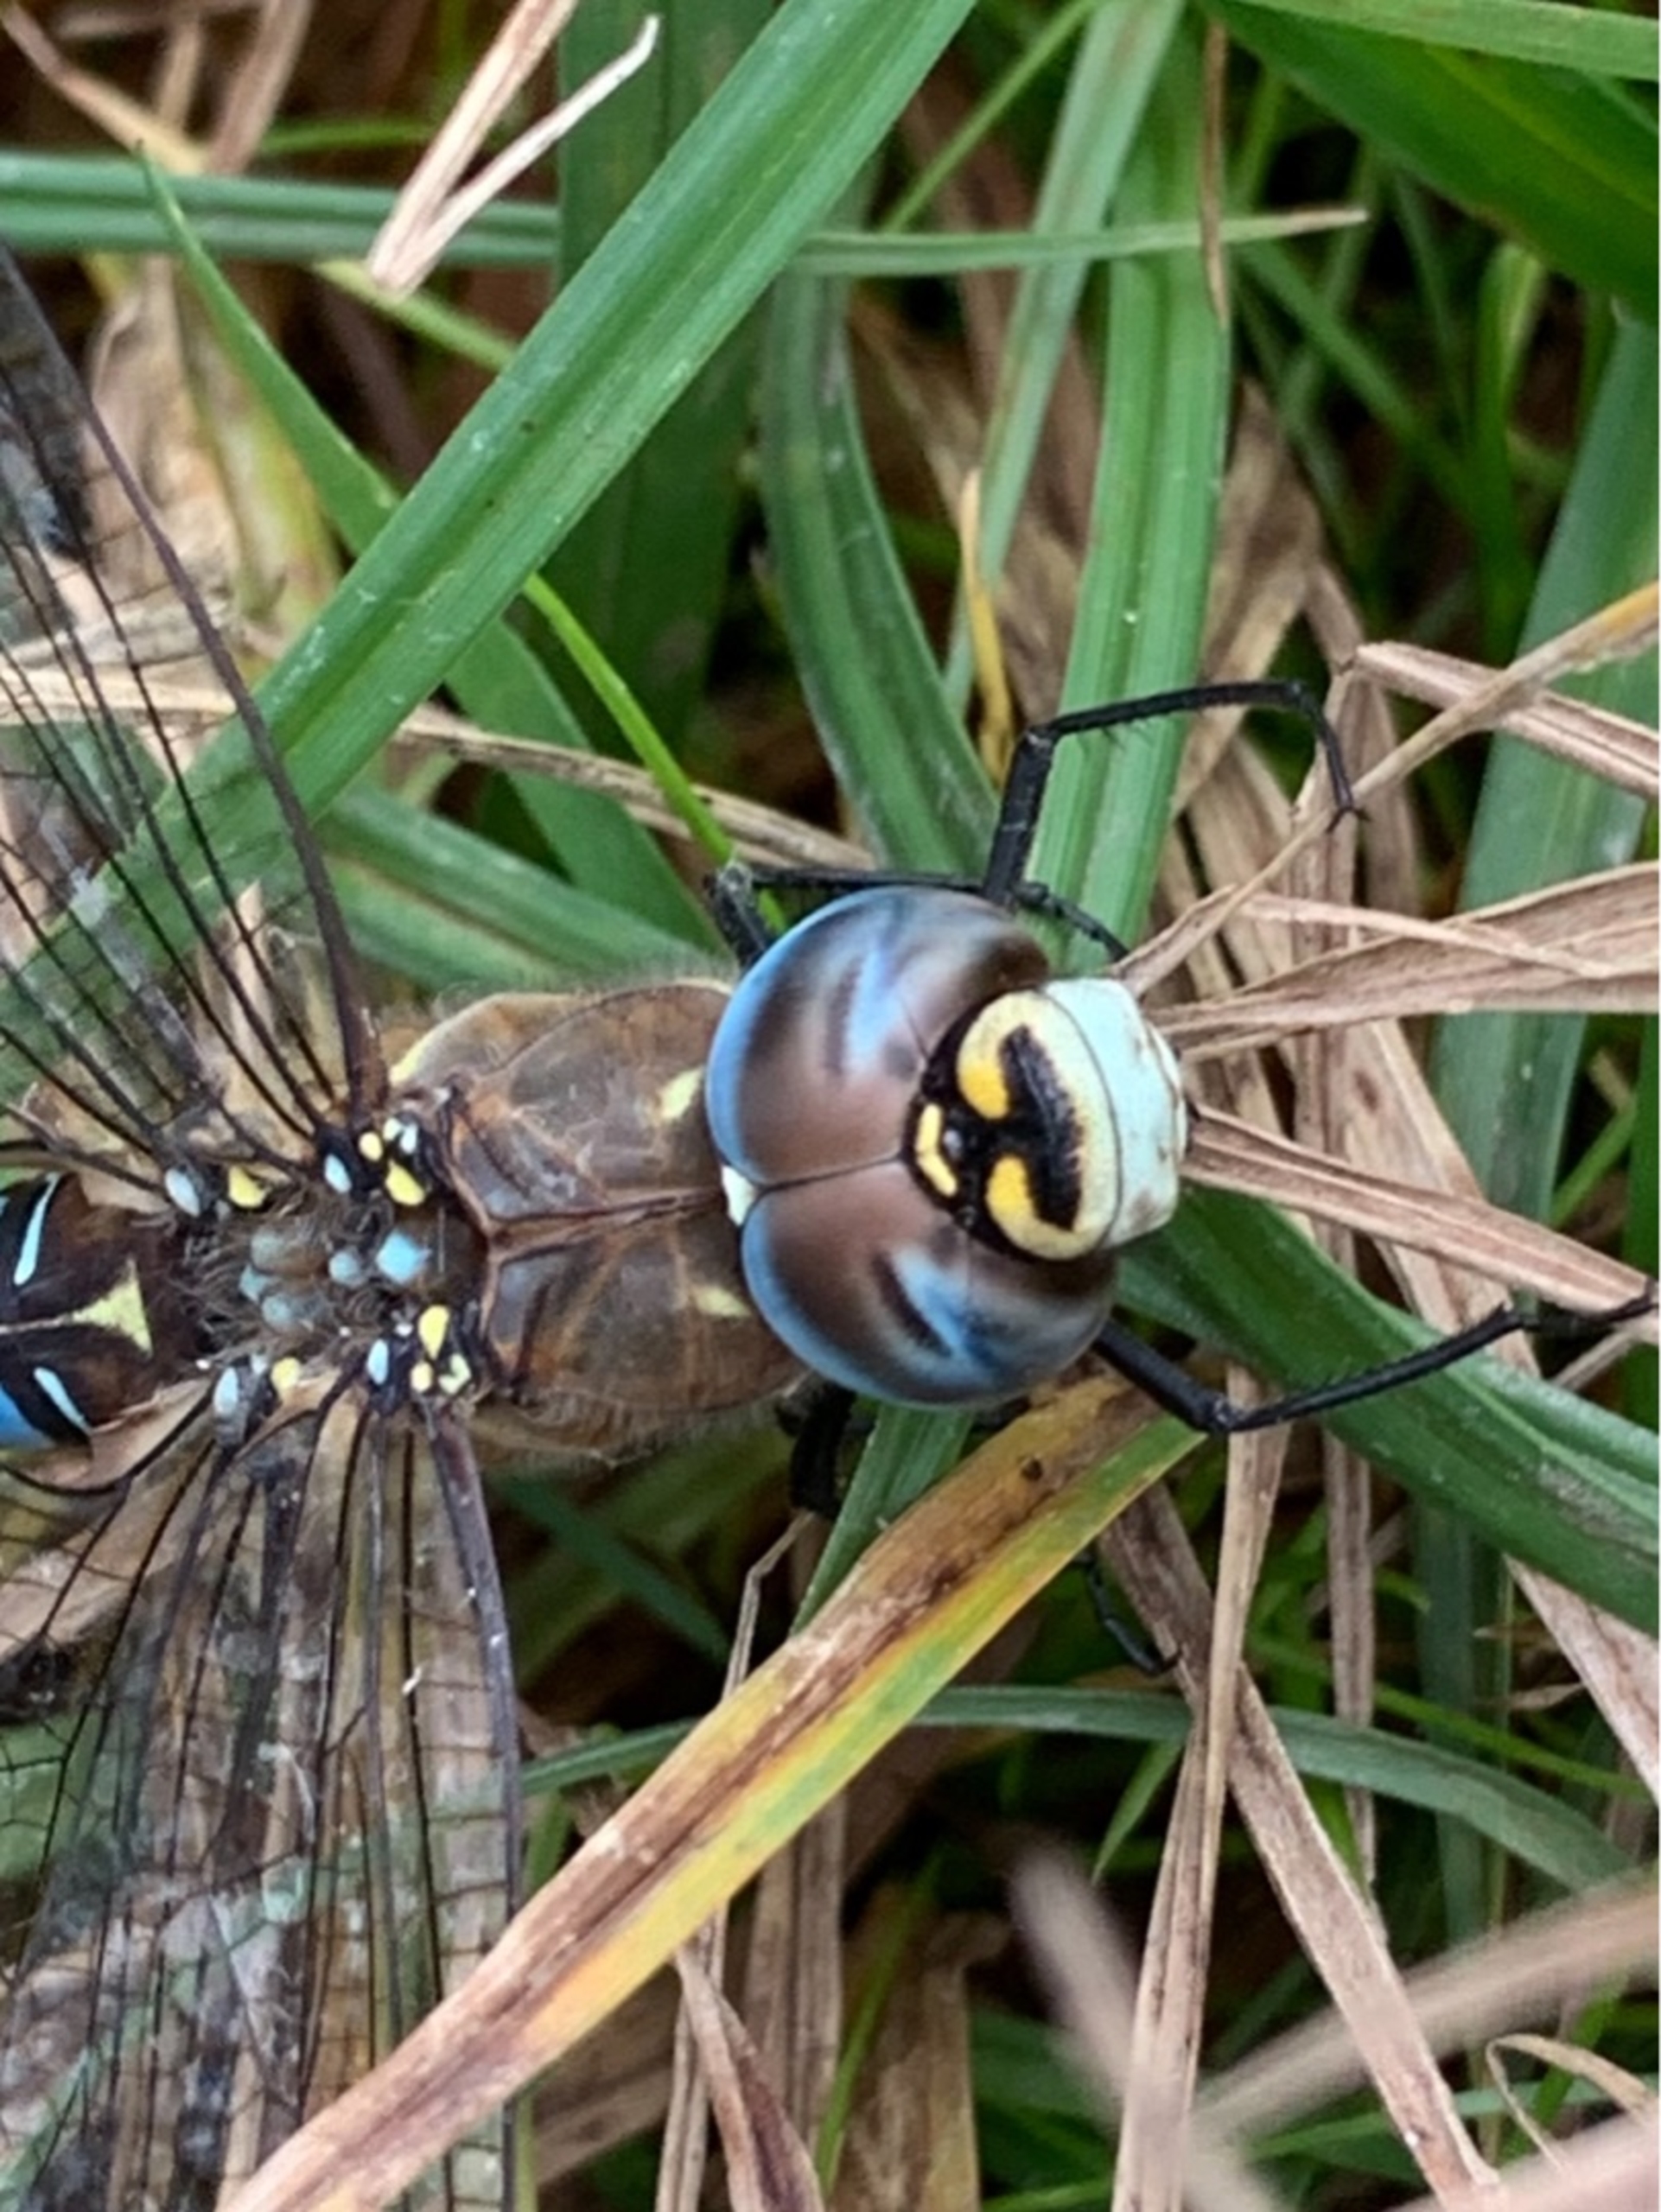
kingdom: Animalia
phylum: Arthropoda
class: Insecta
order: Odonata
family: Aeshnidae
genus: Aeshna
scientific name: Aeshna mixta
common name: Efterårs-mosaikguldsmed
